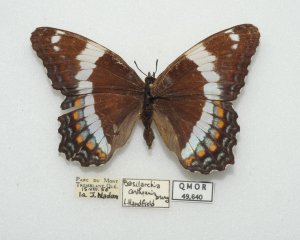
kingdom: Animalia
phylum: Arthropoda
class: Insecta
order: Lepidoptera
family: Nymphalidae
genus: Limenitis
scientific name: Limenitis arthemis
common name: Red-spotted Admiral
